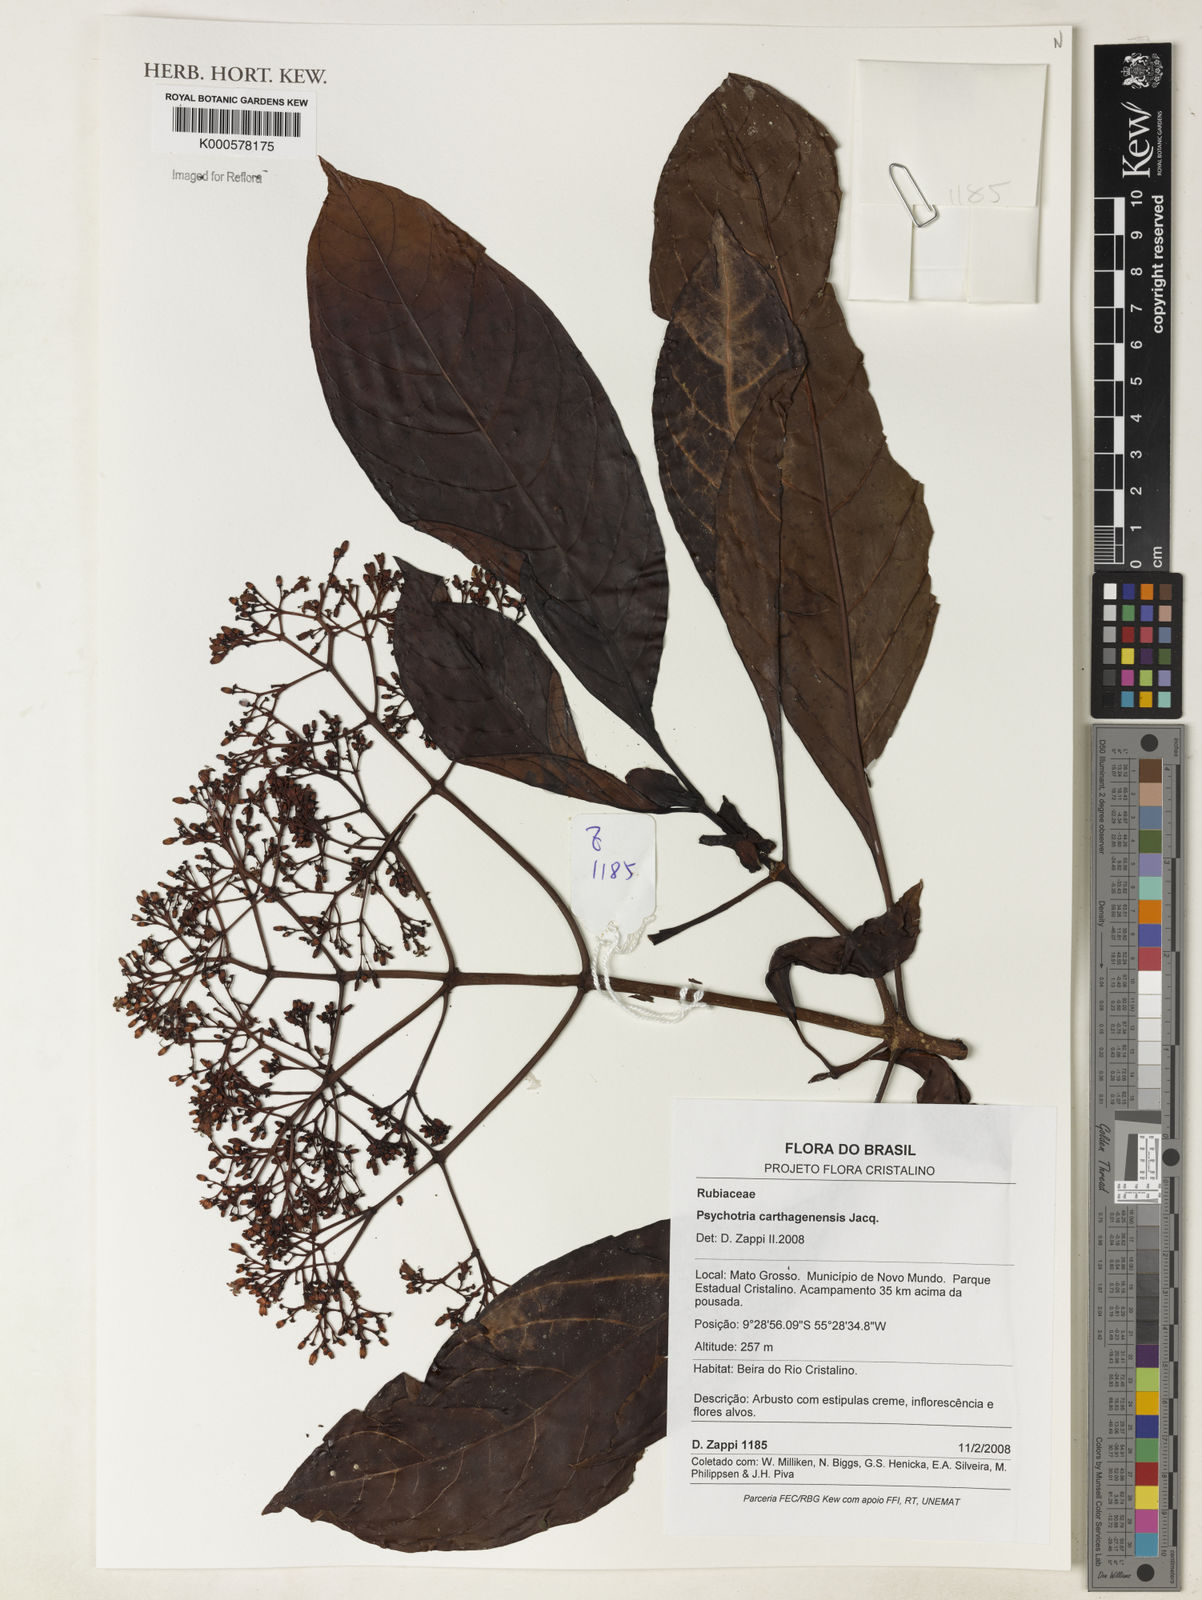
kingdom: Plantae
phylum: Tracheophyta
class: Magnoliopsida
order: Gentianales
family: Rubiaceae
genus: Psychotria
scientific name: Psychotria carthagenensis
